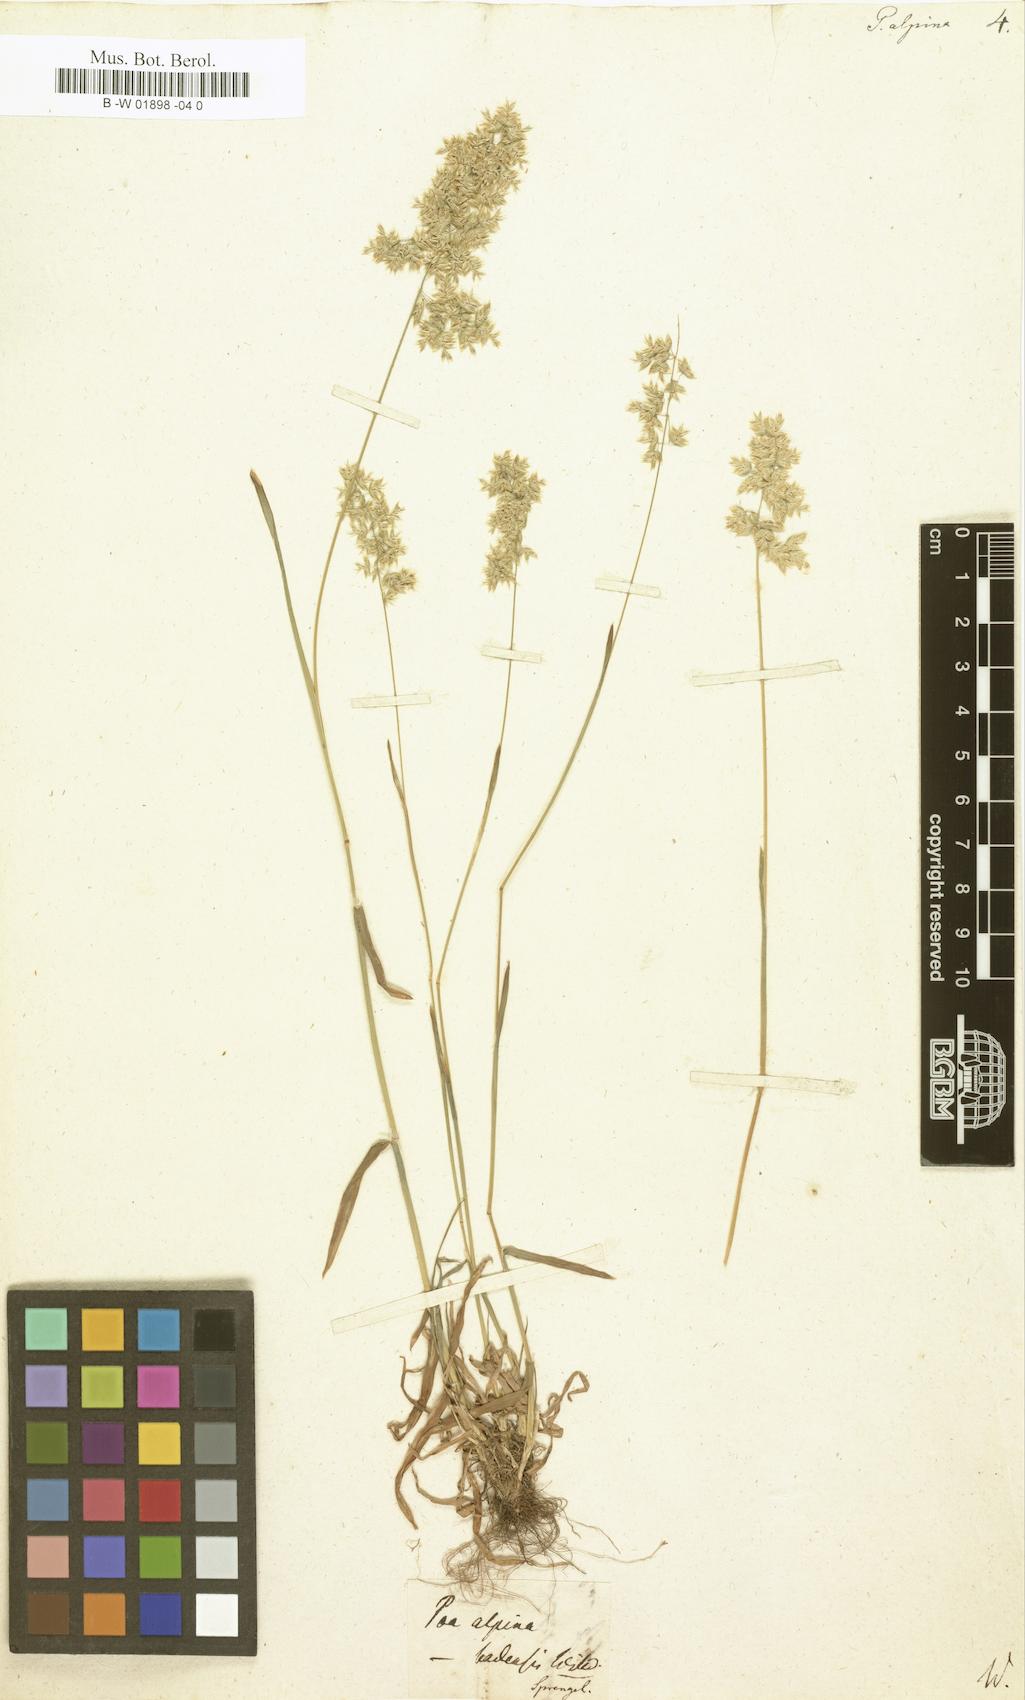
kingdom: Plantae
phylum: Tracheophyta
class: Liliopsida
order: Poales
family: Poaceae
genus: Poa
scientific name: Poa alpina
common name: Alpine bluegrass
